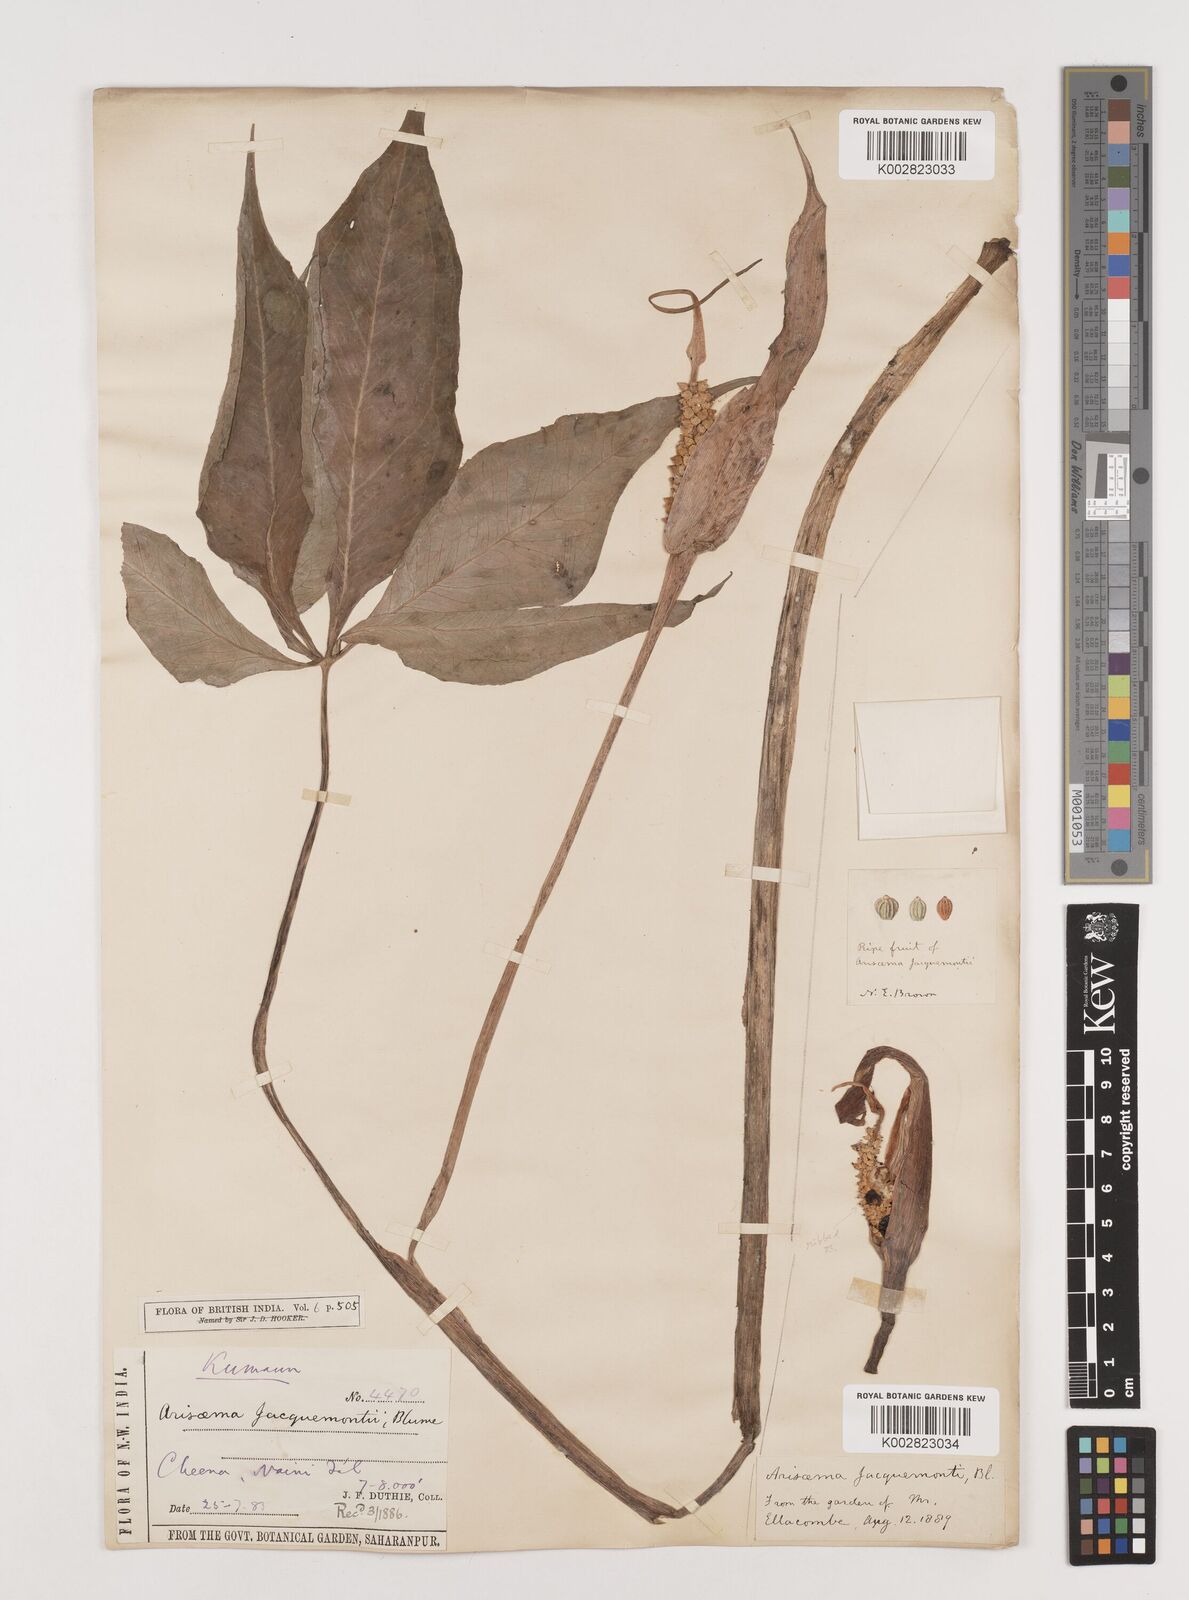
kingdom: Plantae
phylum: Tracheophyta
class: Liliopsida
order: Alismatales
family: Araceae
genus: Arisaema
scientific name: Arisaema jacquemontii
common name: Jacquemont's cobra-lily
